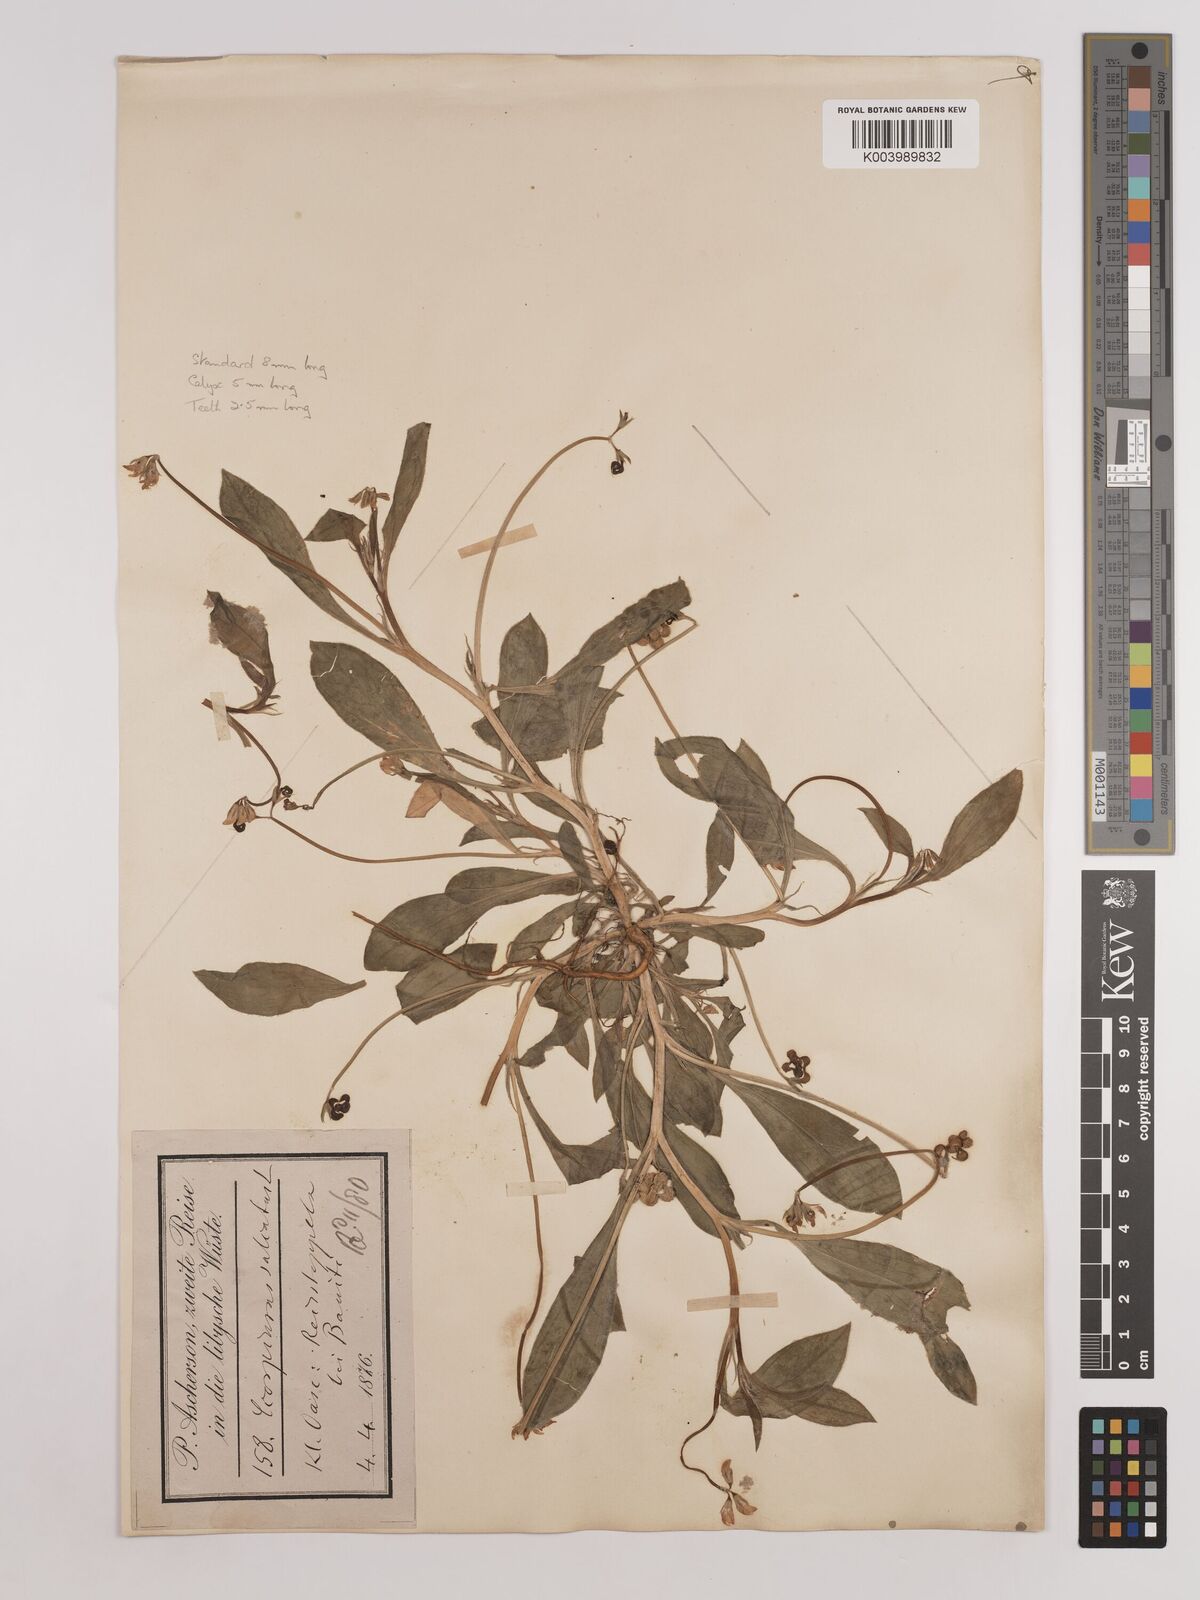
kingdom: Plantae
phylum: Tracheophyta
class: Magnoliopsida
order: Fabales
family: Fabaceae
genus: Scorpiurus
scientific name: Scorpiurus muricatus
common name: Caterpillar-plant
